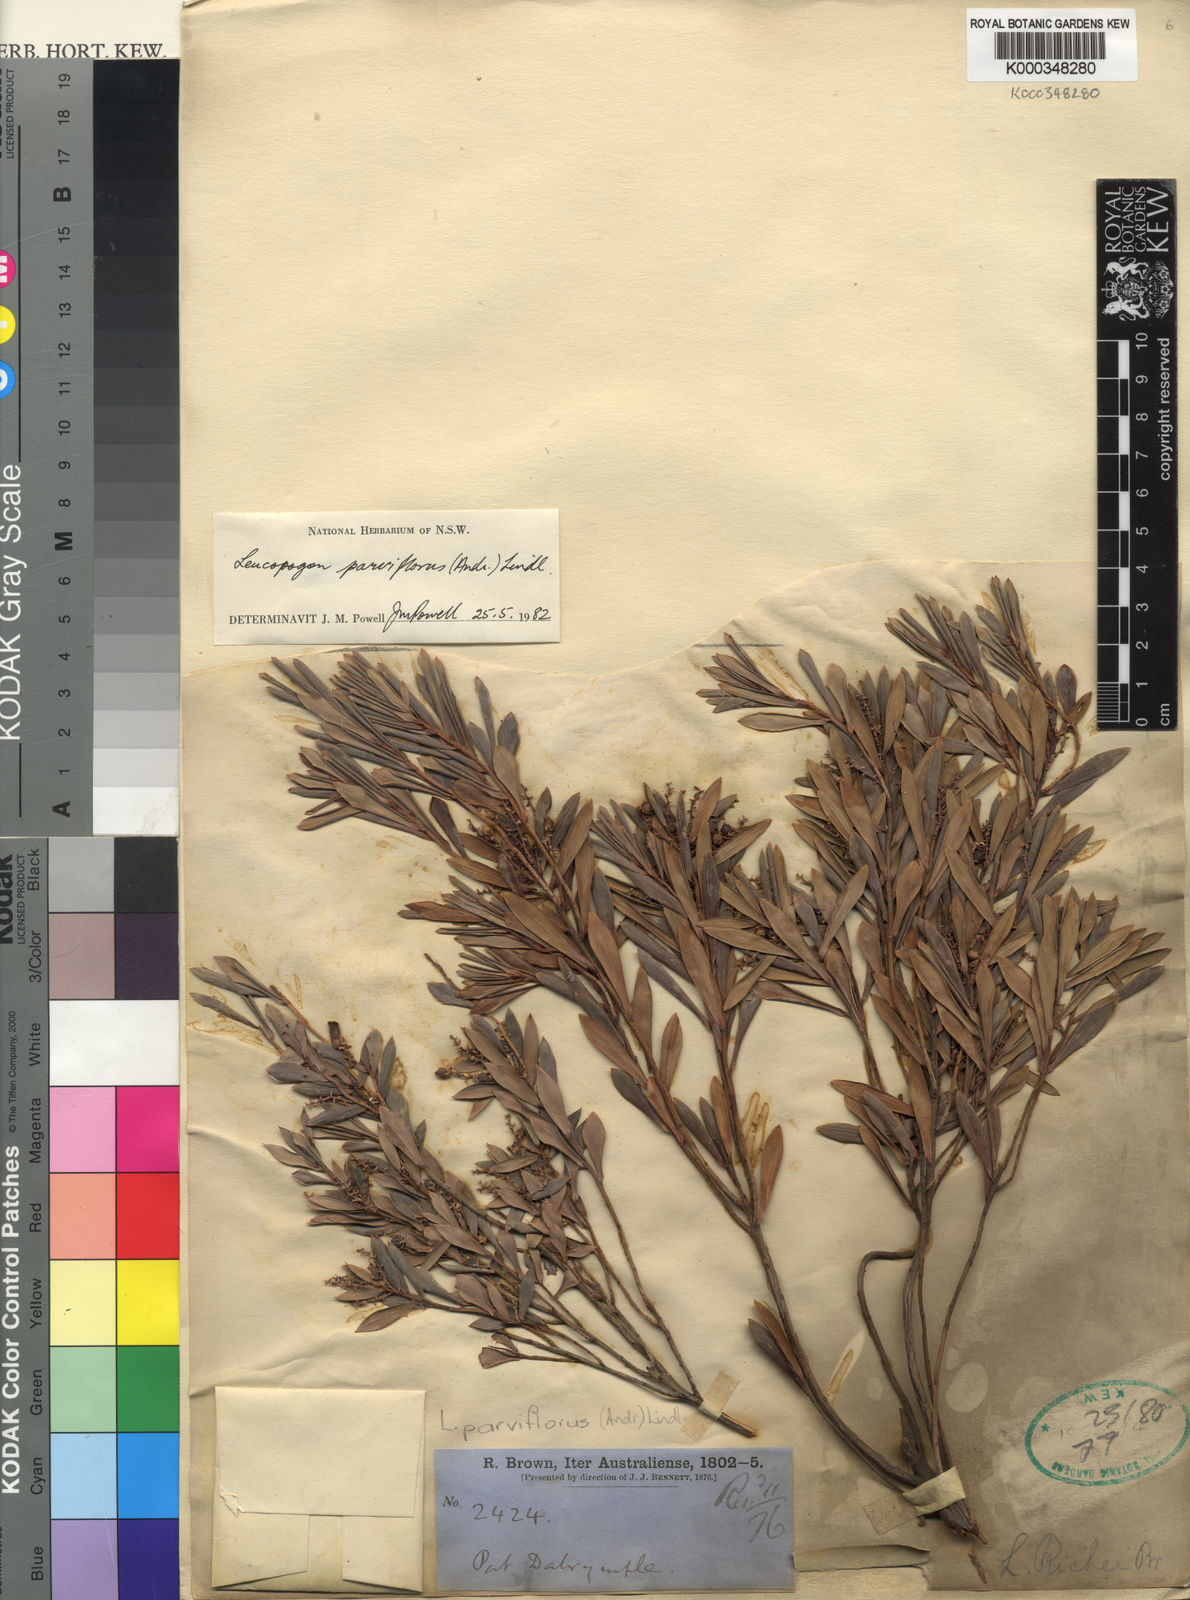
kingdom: Plantae
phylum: Tracheophyta
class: Magnoliopsida
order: Ericales
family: Ericaceae
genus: Leptecophylla
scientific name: Leptecophylla parvifolia
